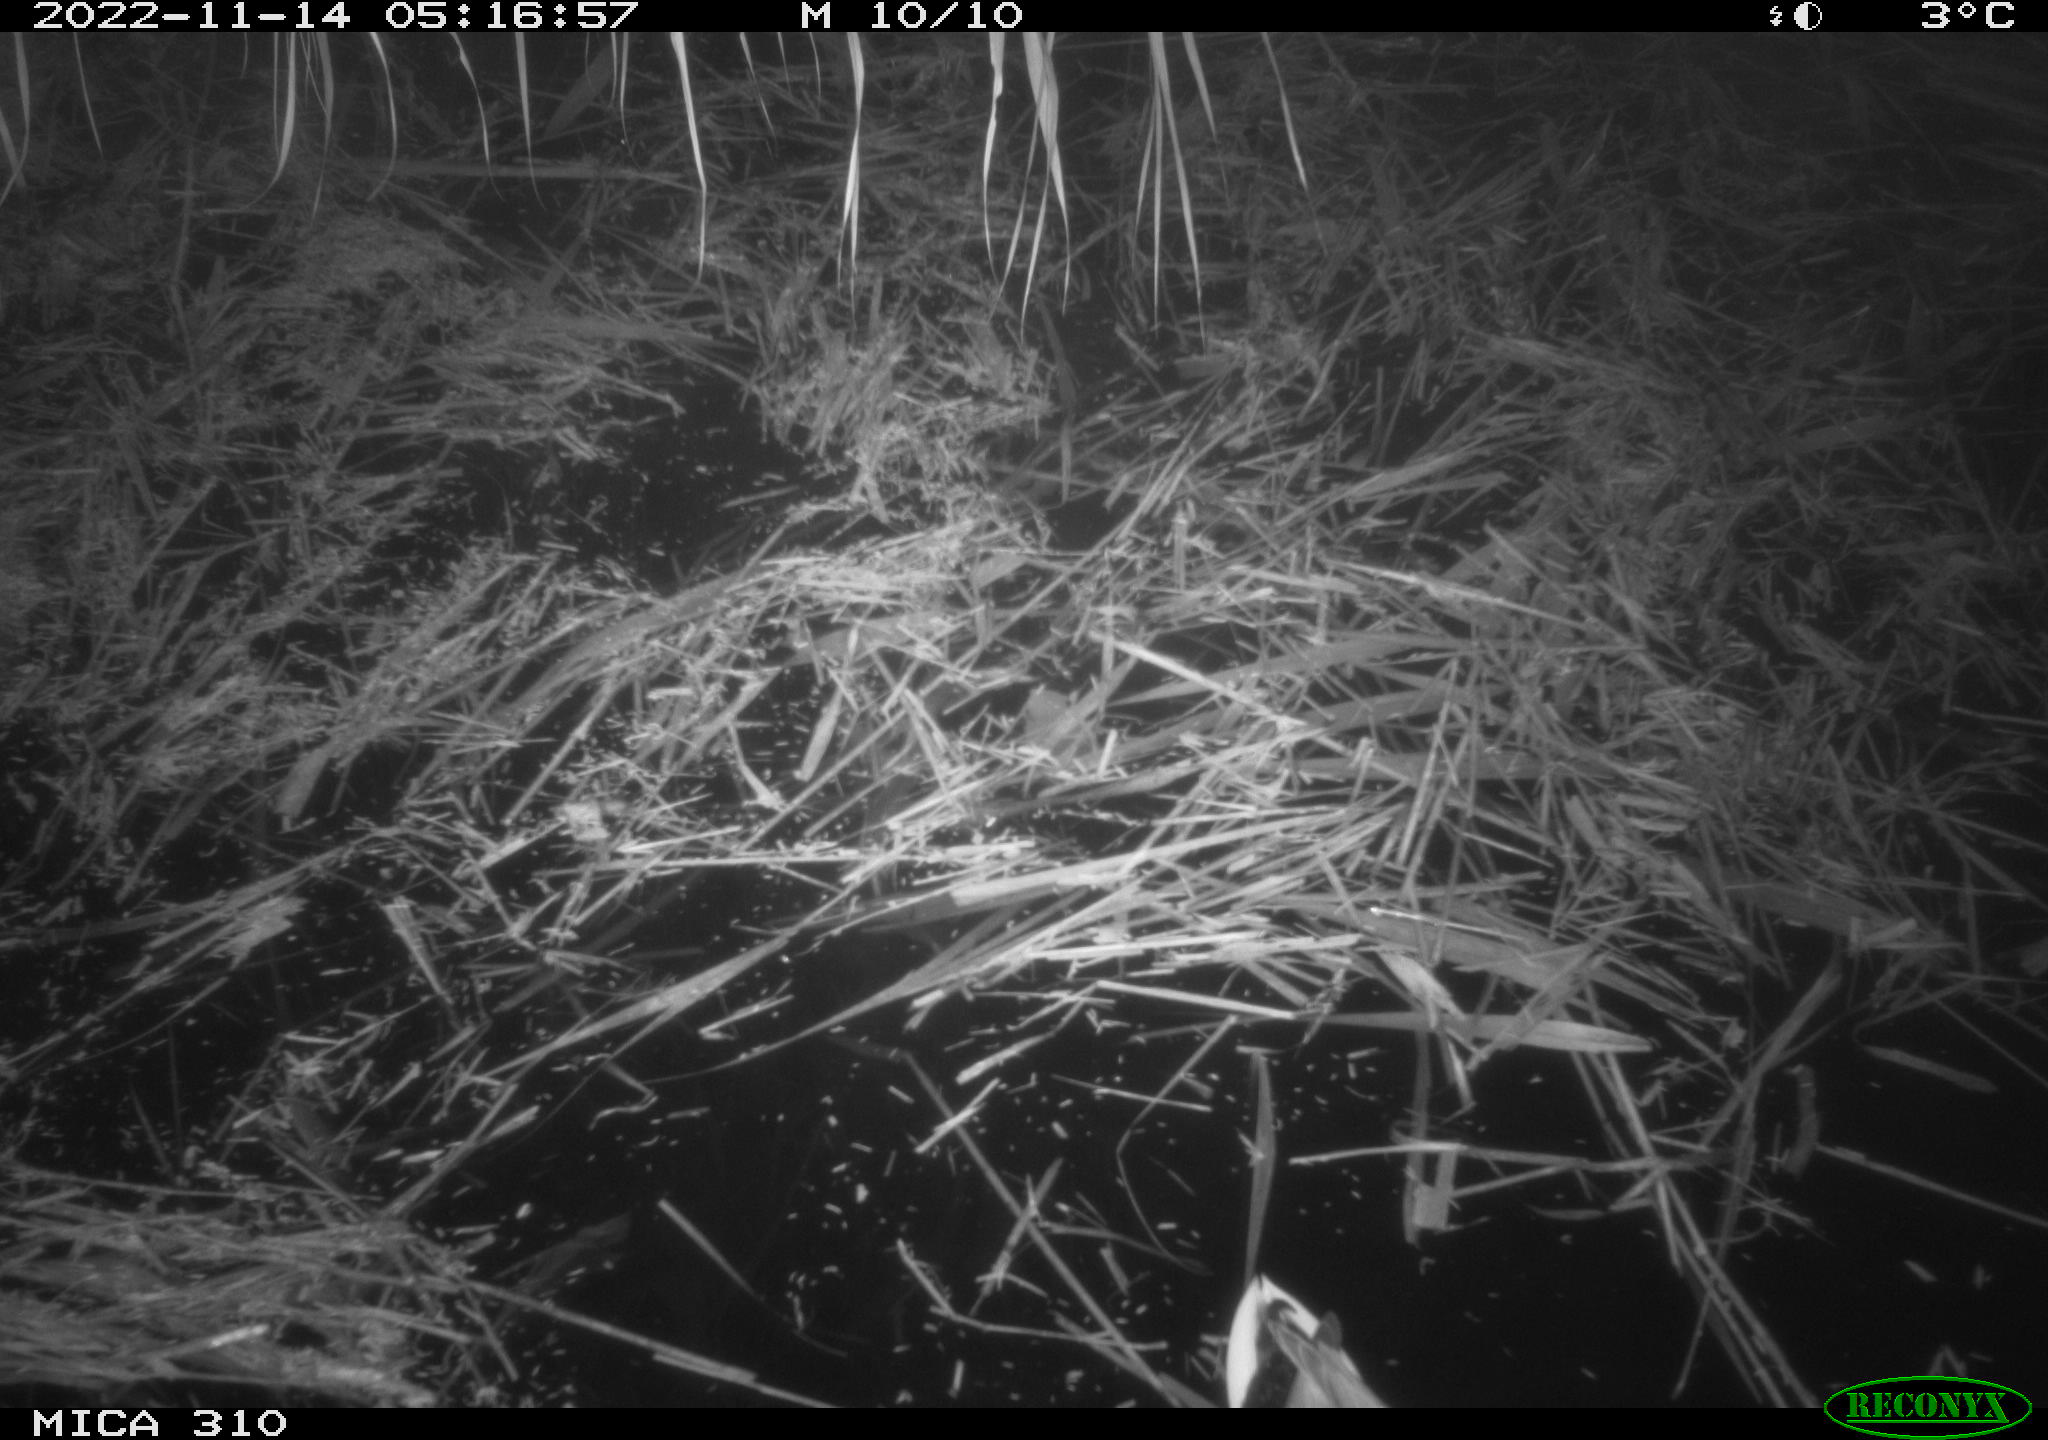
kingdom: Animalia
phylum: Chordata
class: Aves
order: Anseriformes
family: Anatidae
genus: Anas
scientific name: Anas
